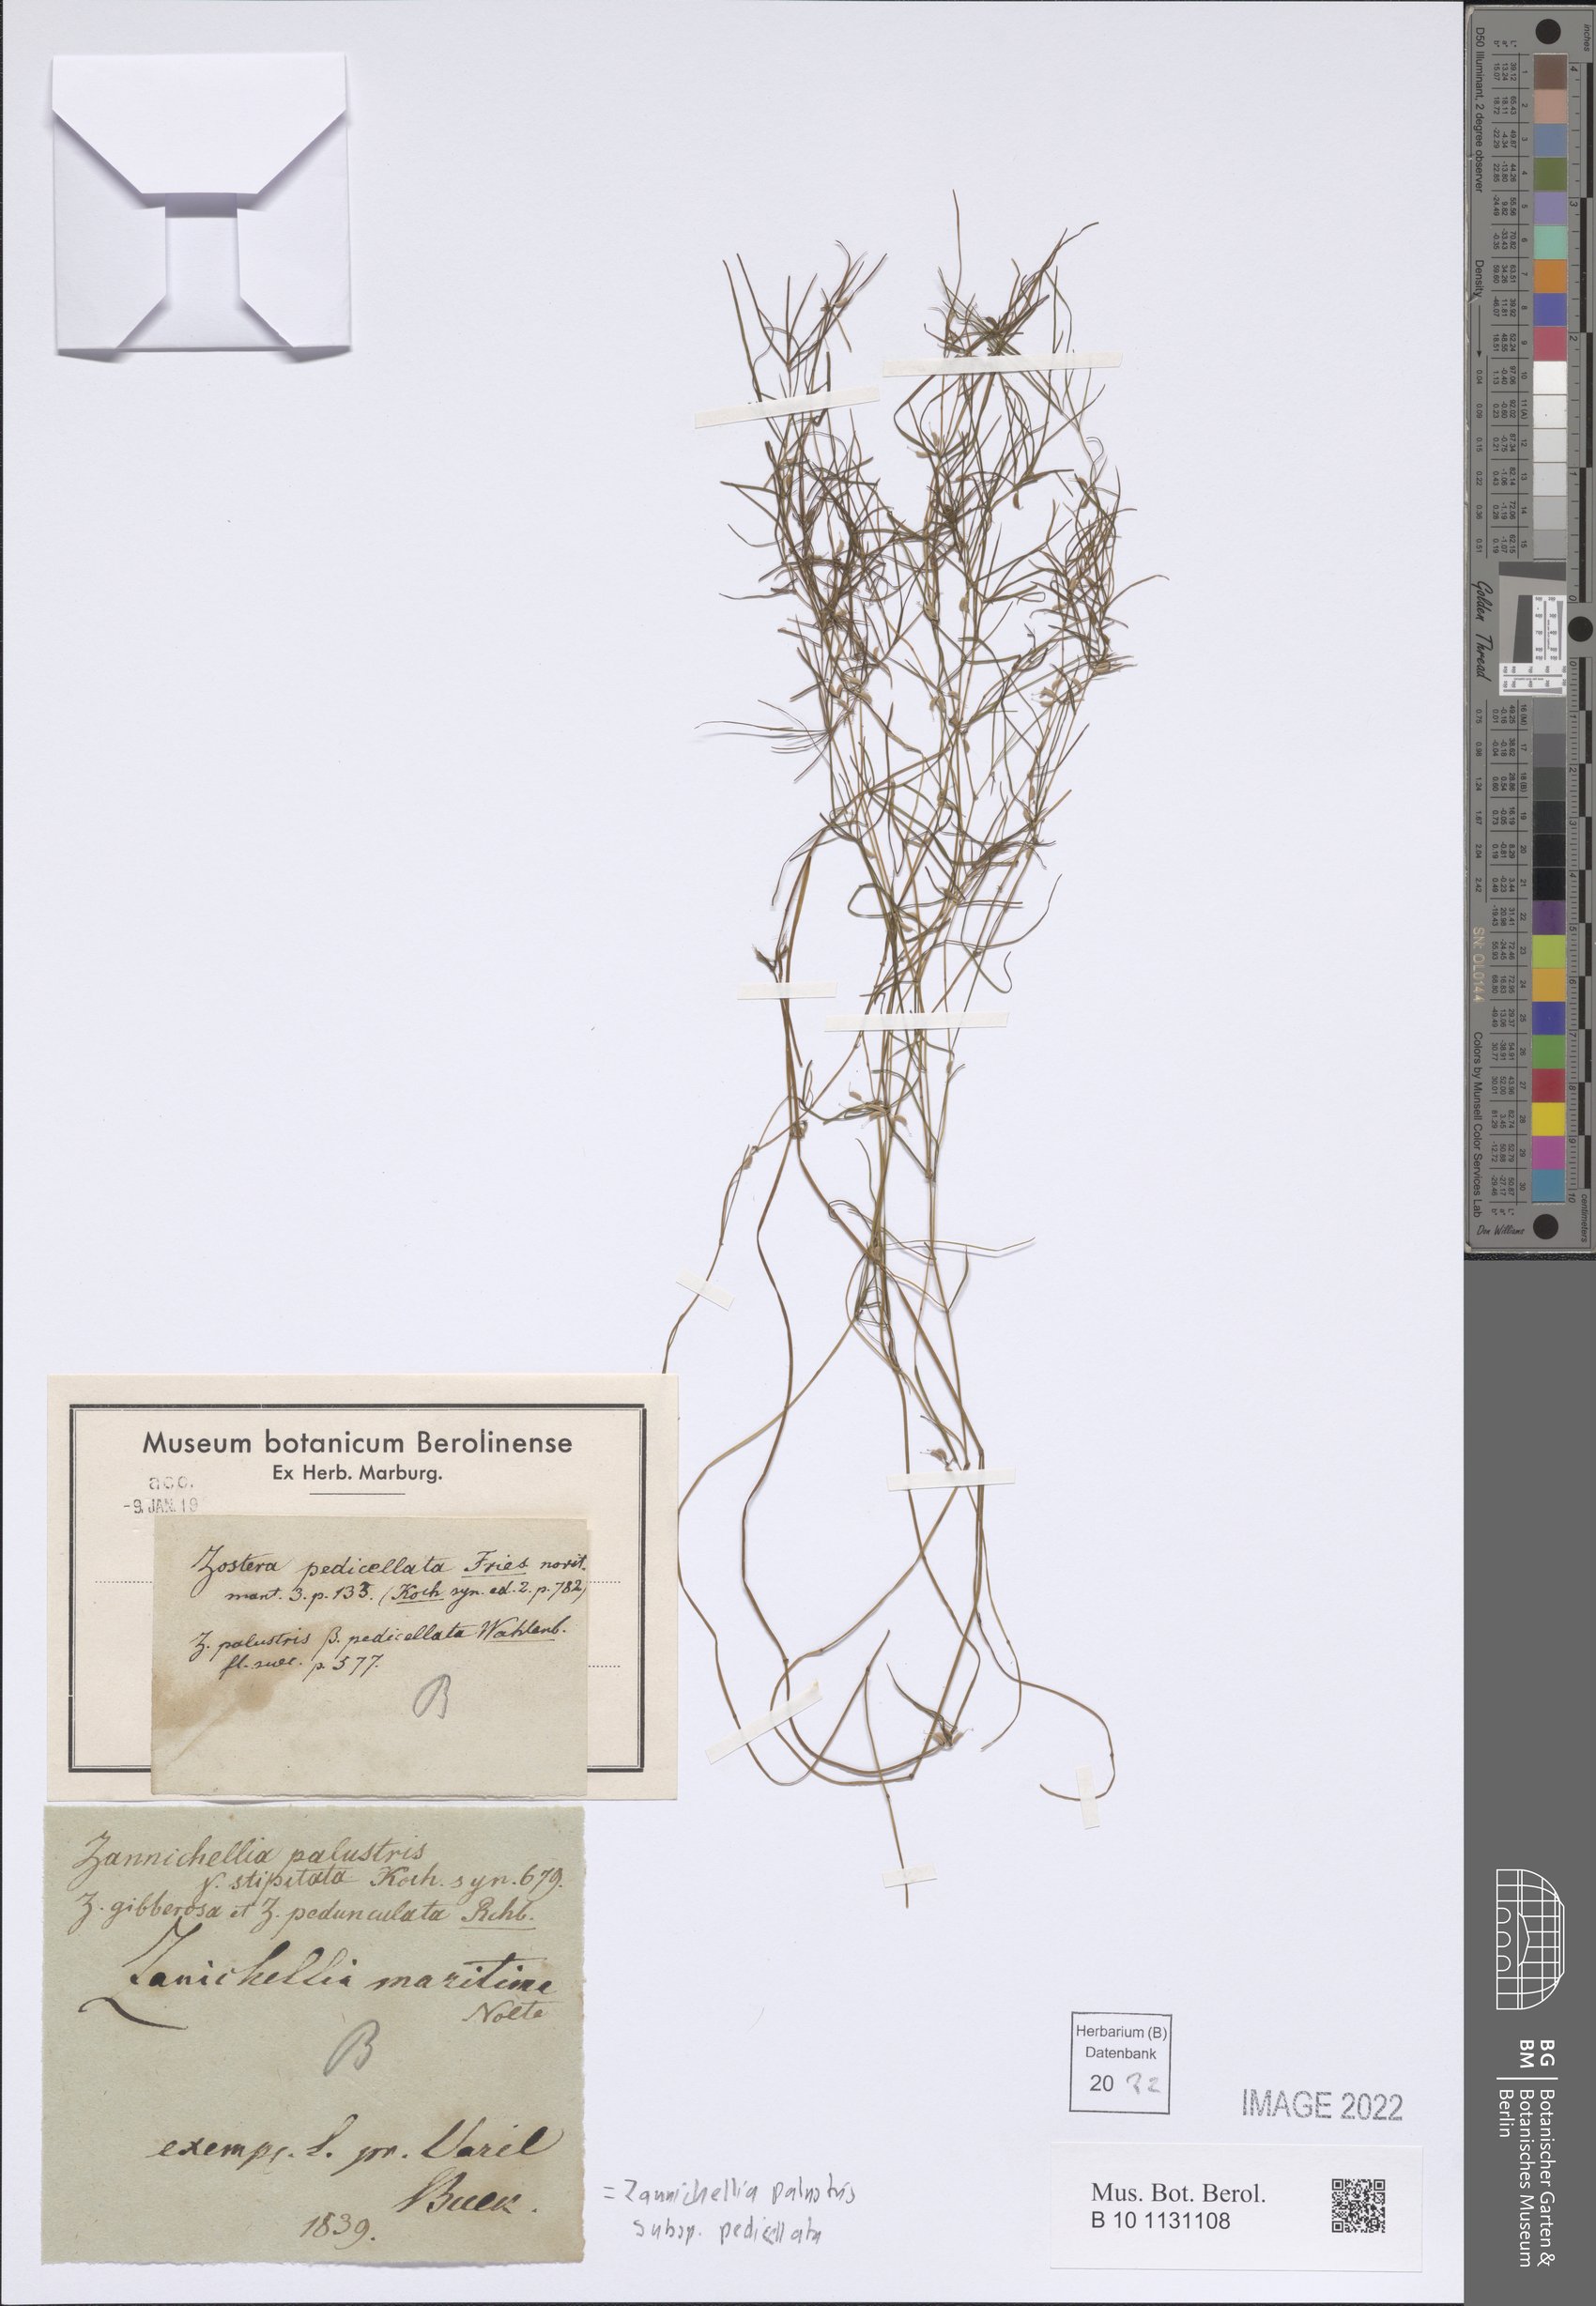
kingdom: Plantae
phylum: Tracheophyta
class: Liliopsida
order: Alismatales
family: Potamogetonaceae
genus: Zannichellia
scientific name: Zannichellia palustris
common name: Horned pondweed
